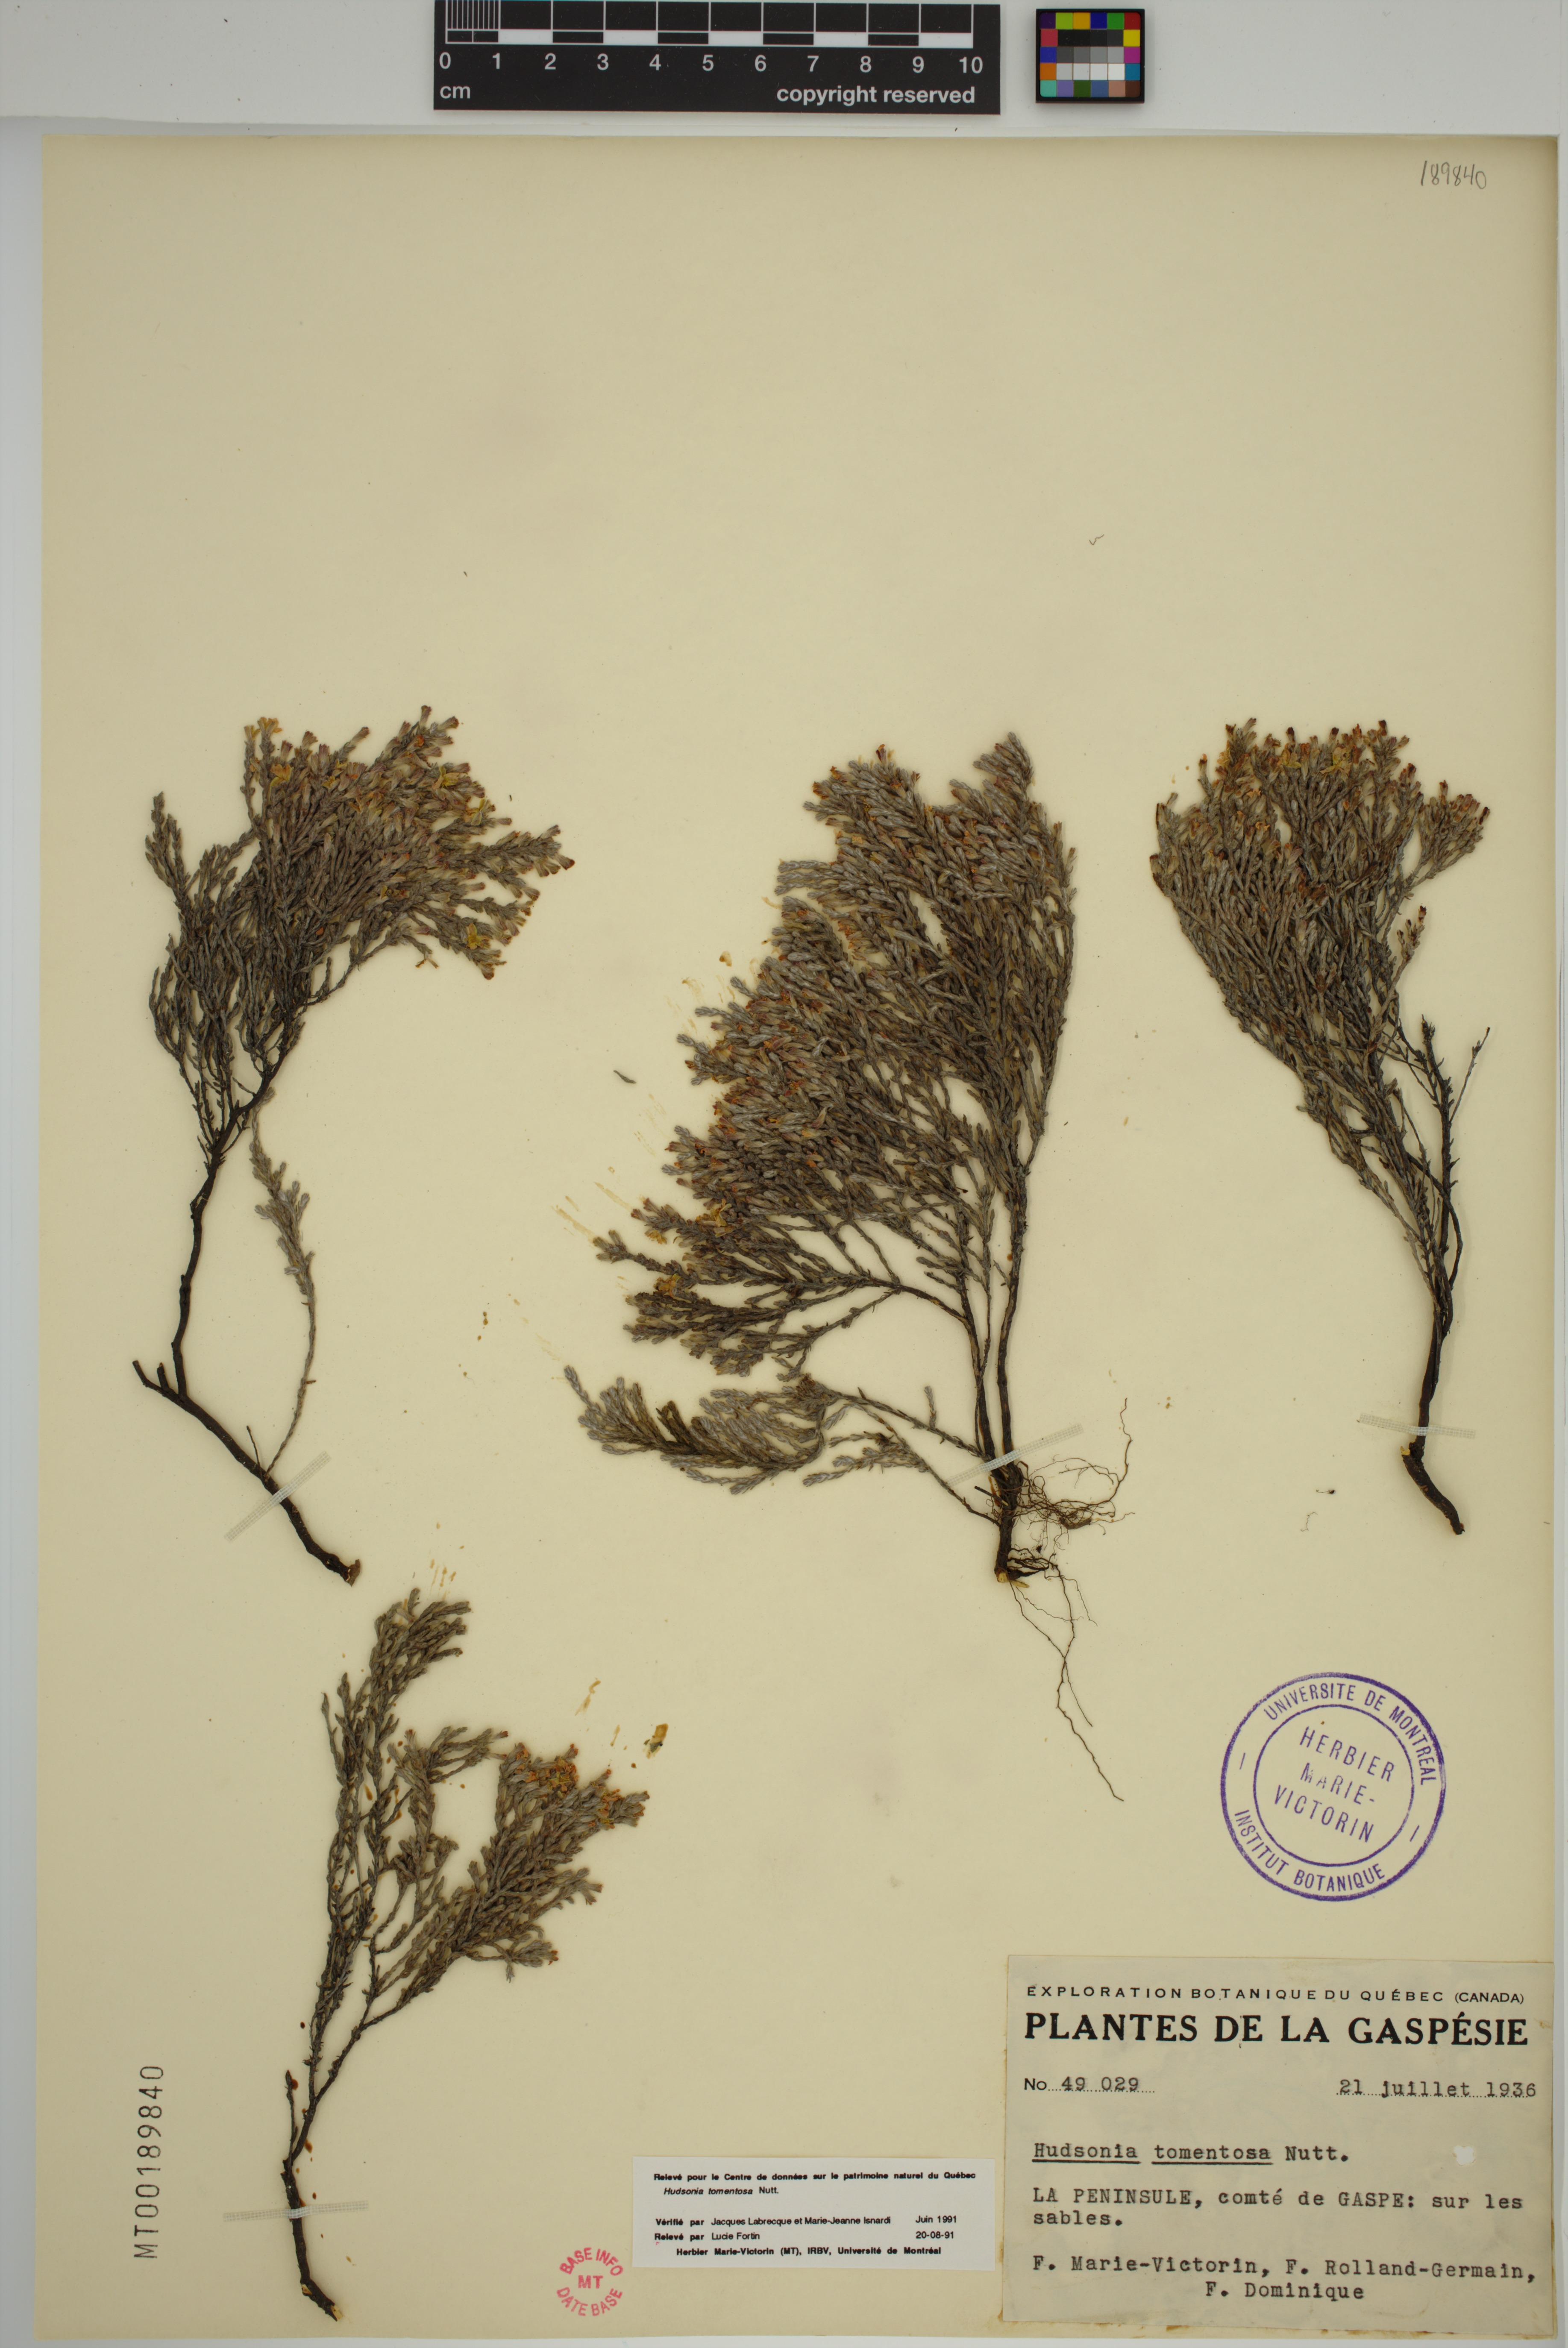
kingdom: Plantae
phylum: Tracheophyta
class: Magnoliopsida
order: Malvales
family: Cistaceae
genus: Hudsonia
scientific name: Hudsonia tomentosa
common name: Beach-heath
